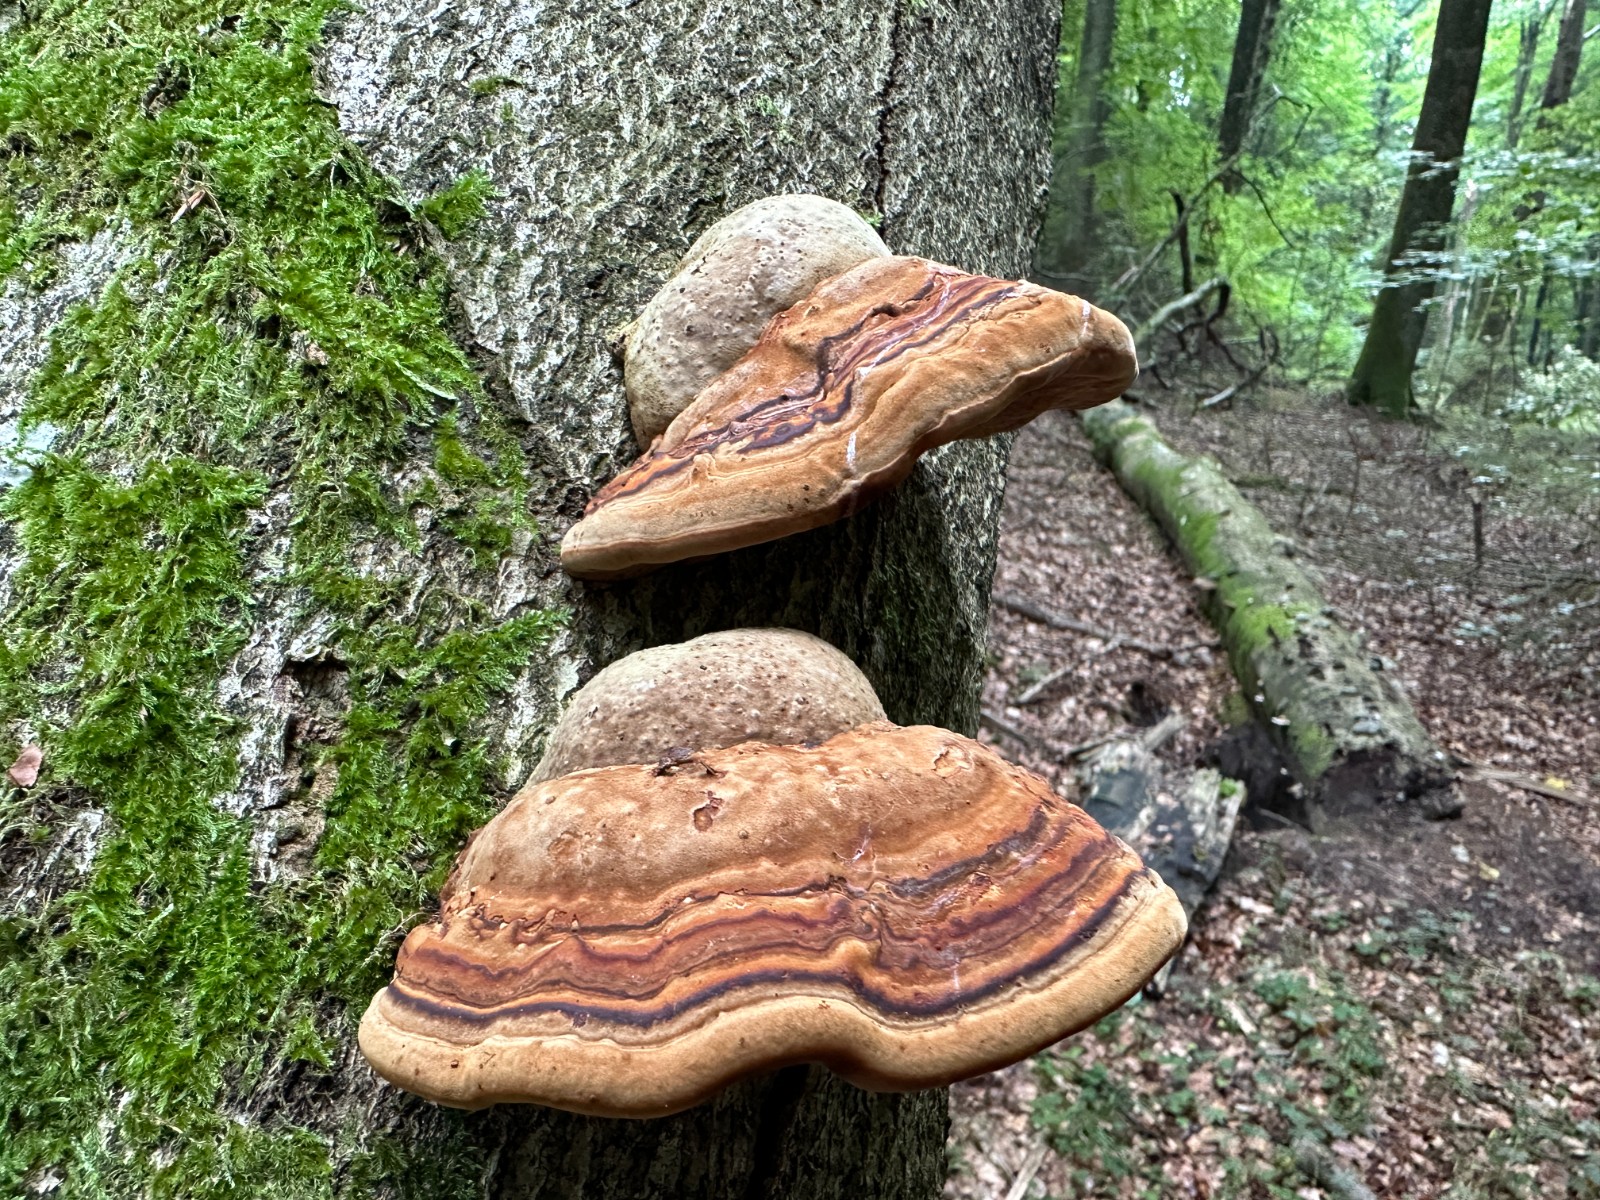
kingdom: Fungi
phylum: Basidiomycota
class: Agaricomycetes
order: Polyporales
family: Polyporaceae
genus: Fomes
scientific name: Fomes fomentarius
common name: tøndersvamp
